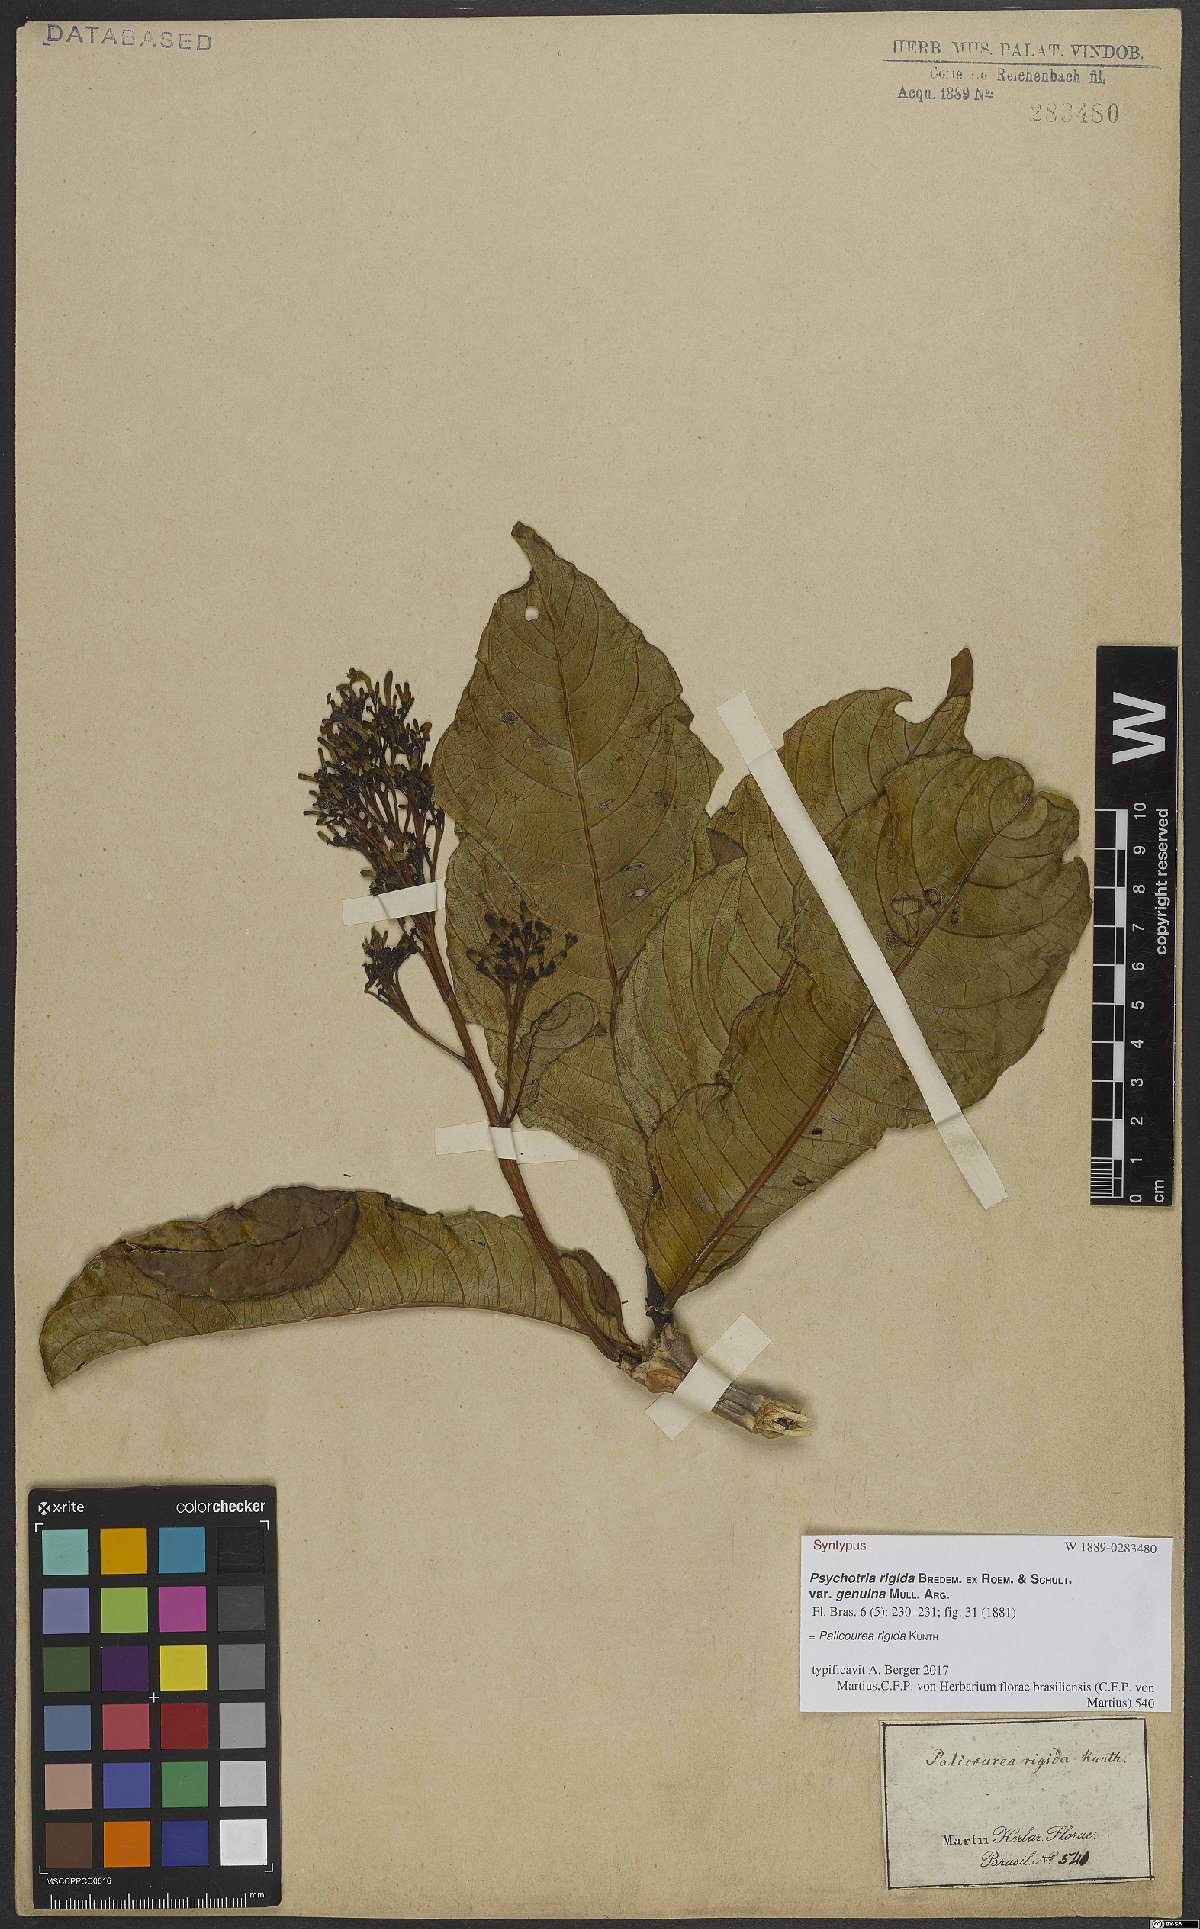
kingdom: Plantae
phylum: Tracheophyta
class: Magnoliopsida
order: Gentianales
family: Rubiaceae
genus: Palicourea
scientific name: Palicourea rigida
